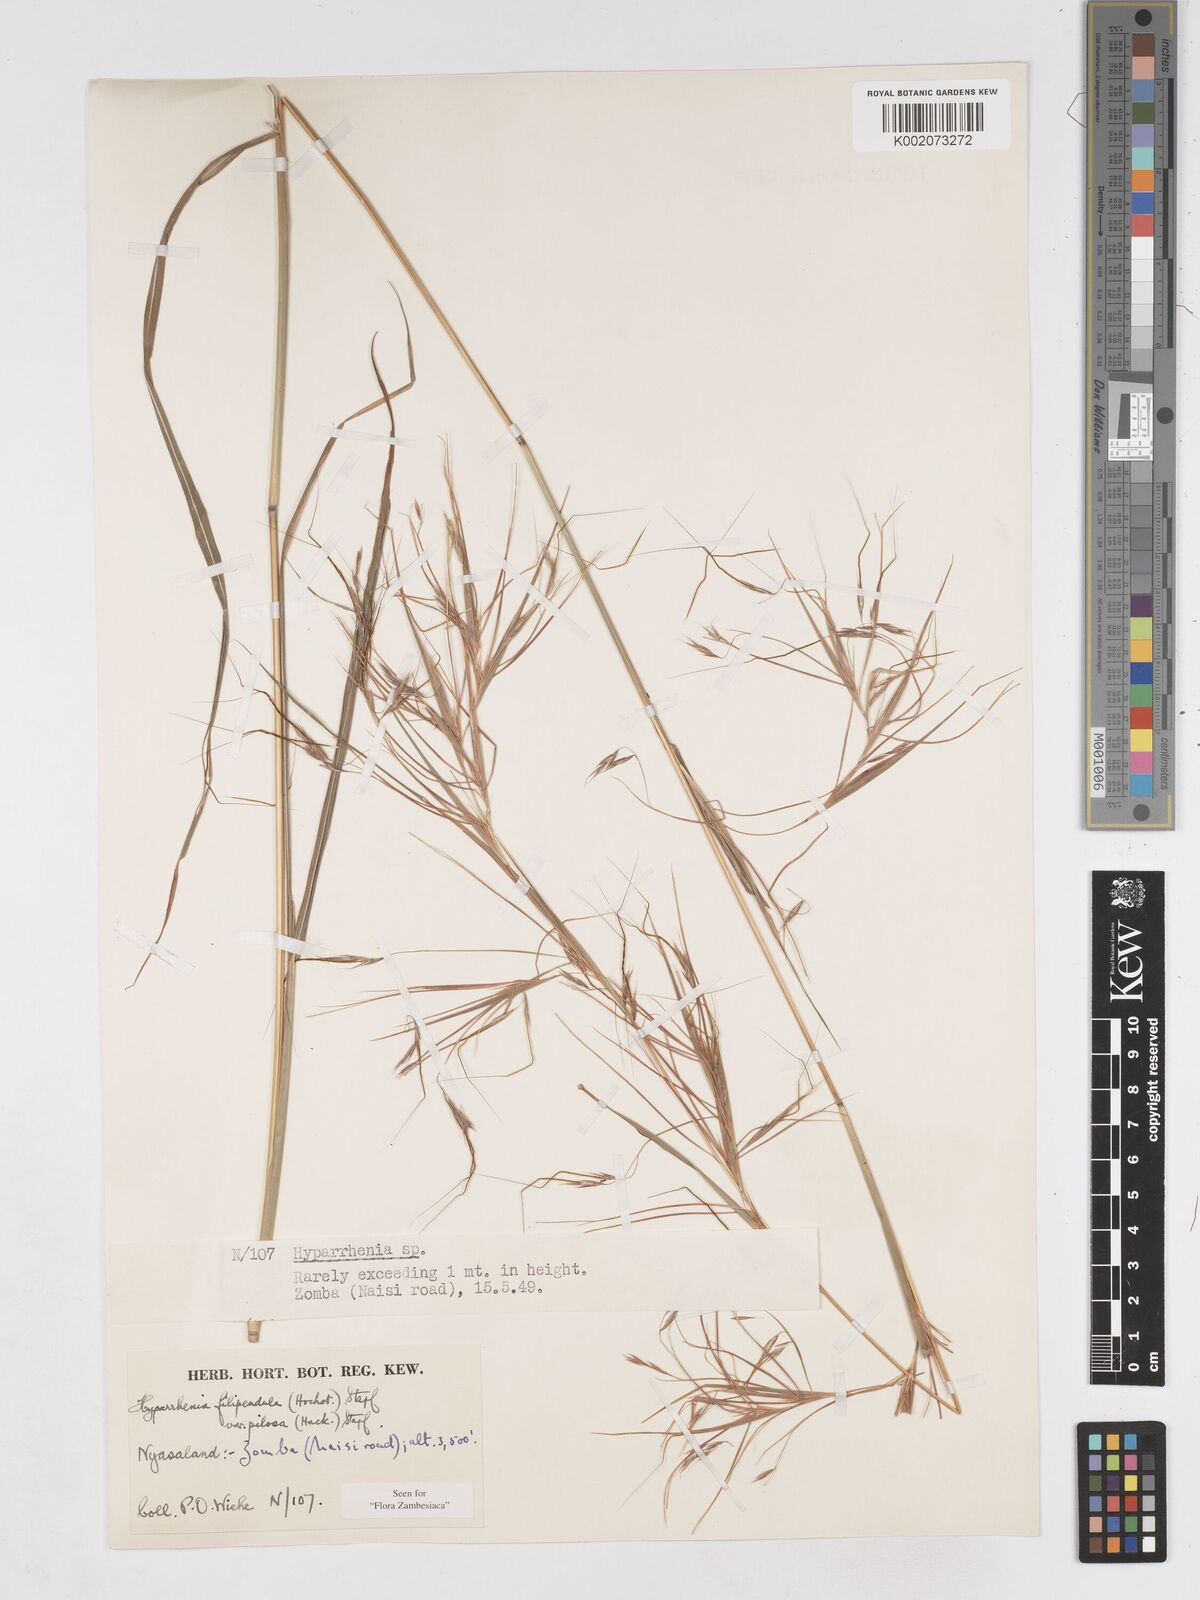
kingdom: Plantae
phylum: Tracheophyta
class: Liliopsida
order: Poales
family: Poaceae
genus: Hyparrhenia
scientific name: Hyparrhenia filipendula
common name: Tambookie grass
